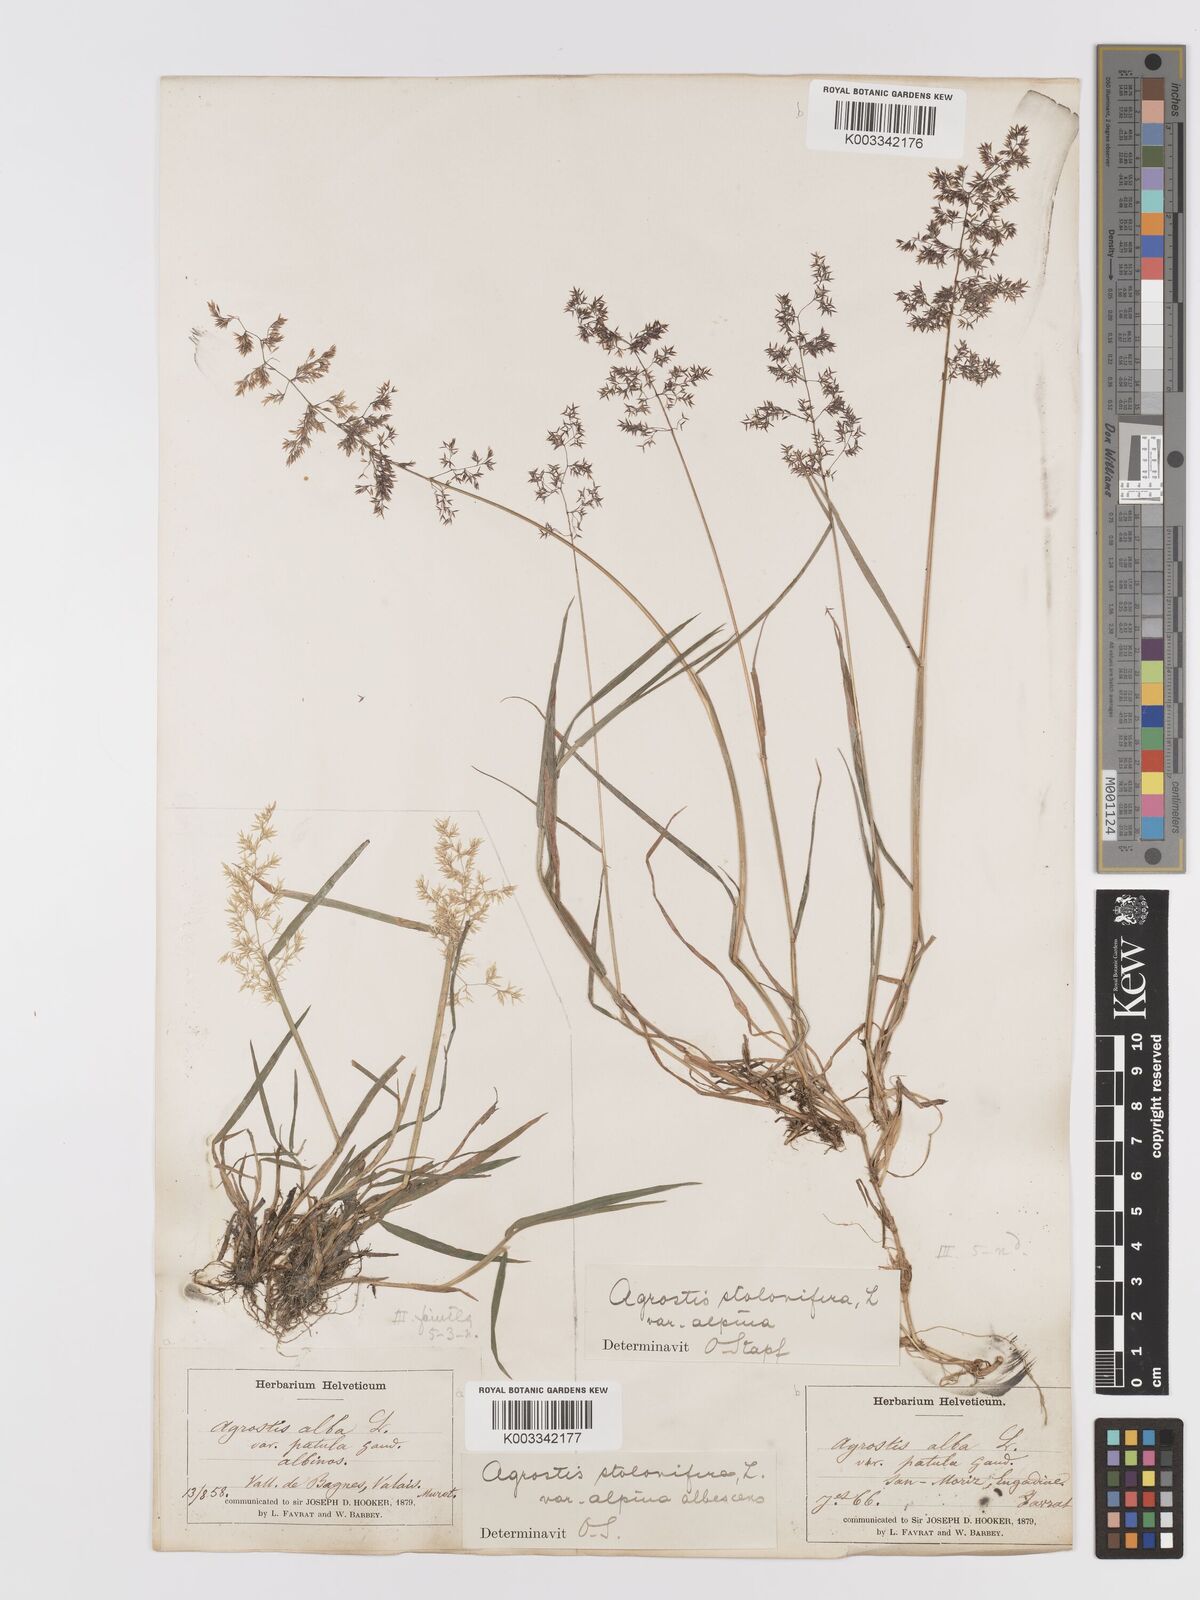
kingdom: Plantae
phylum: Tracheophyta
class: Liliopsida
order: Poales
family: Poaceae
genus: Agrostis
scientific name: Agrostis stolonifera
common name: Creeping bentgrass
